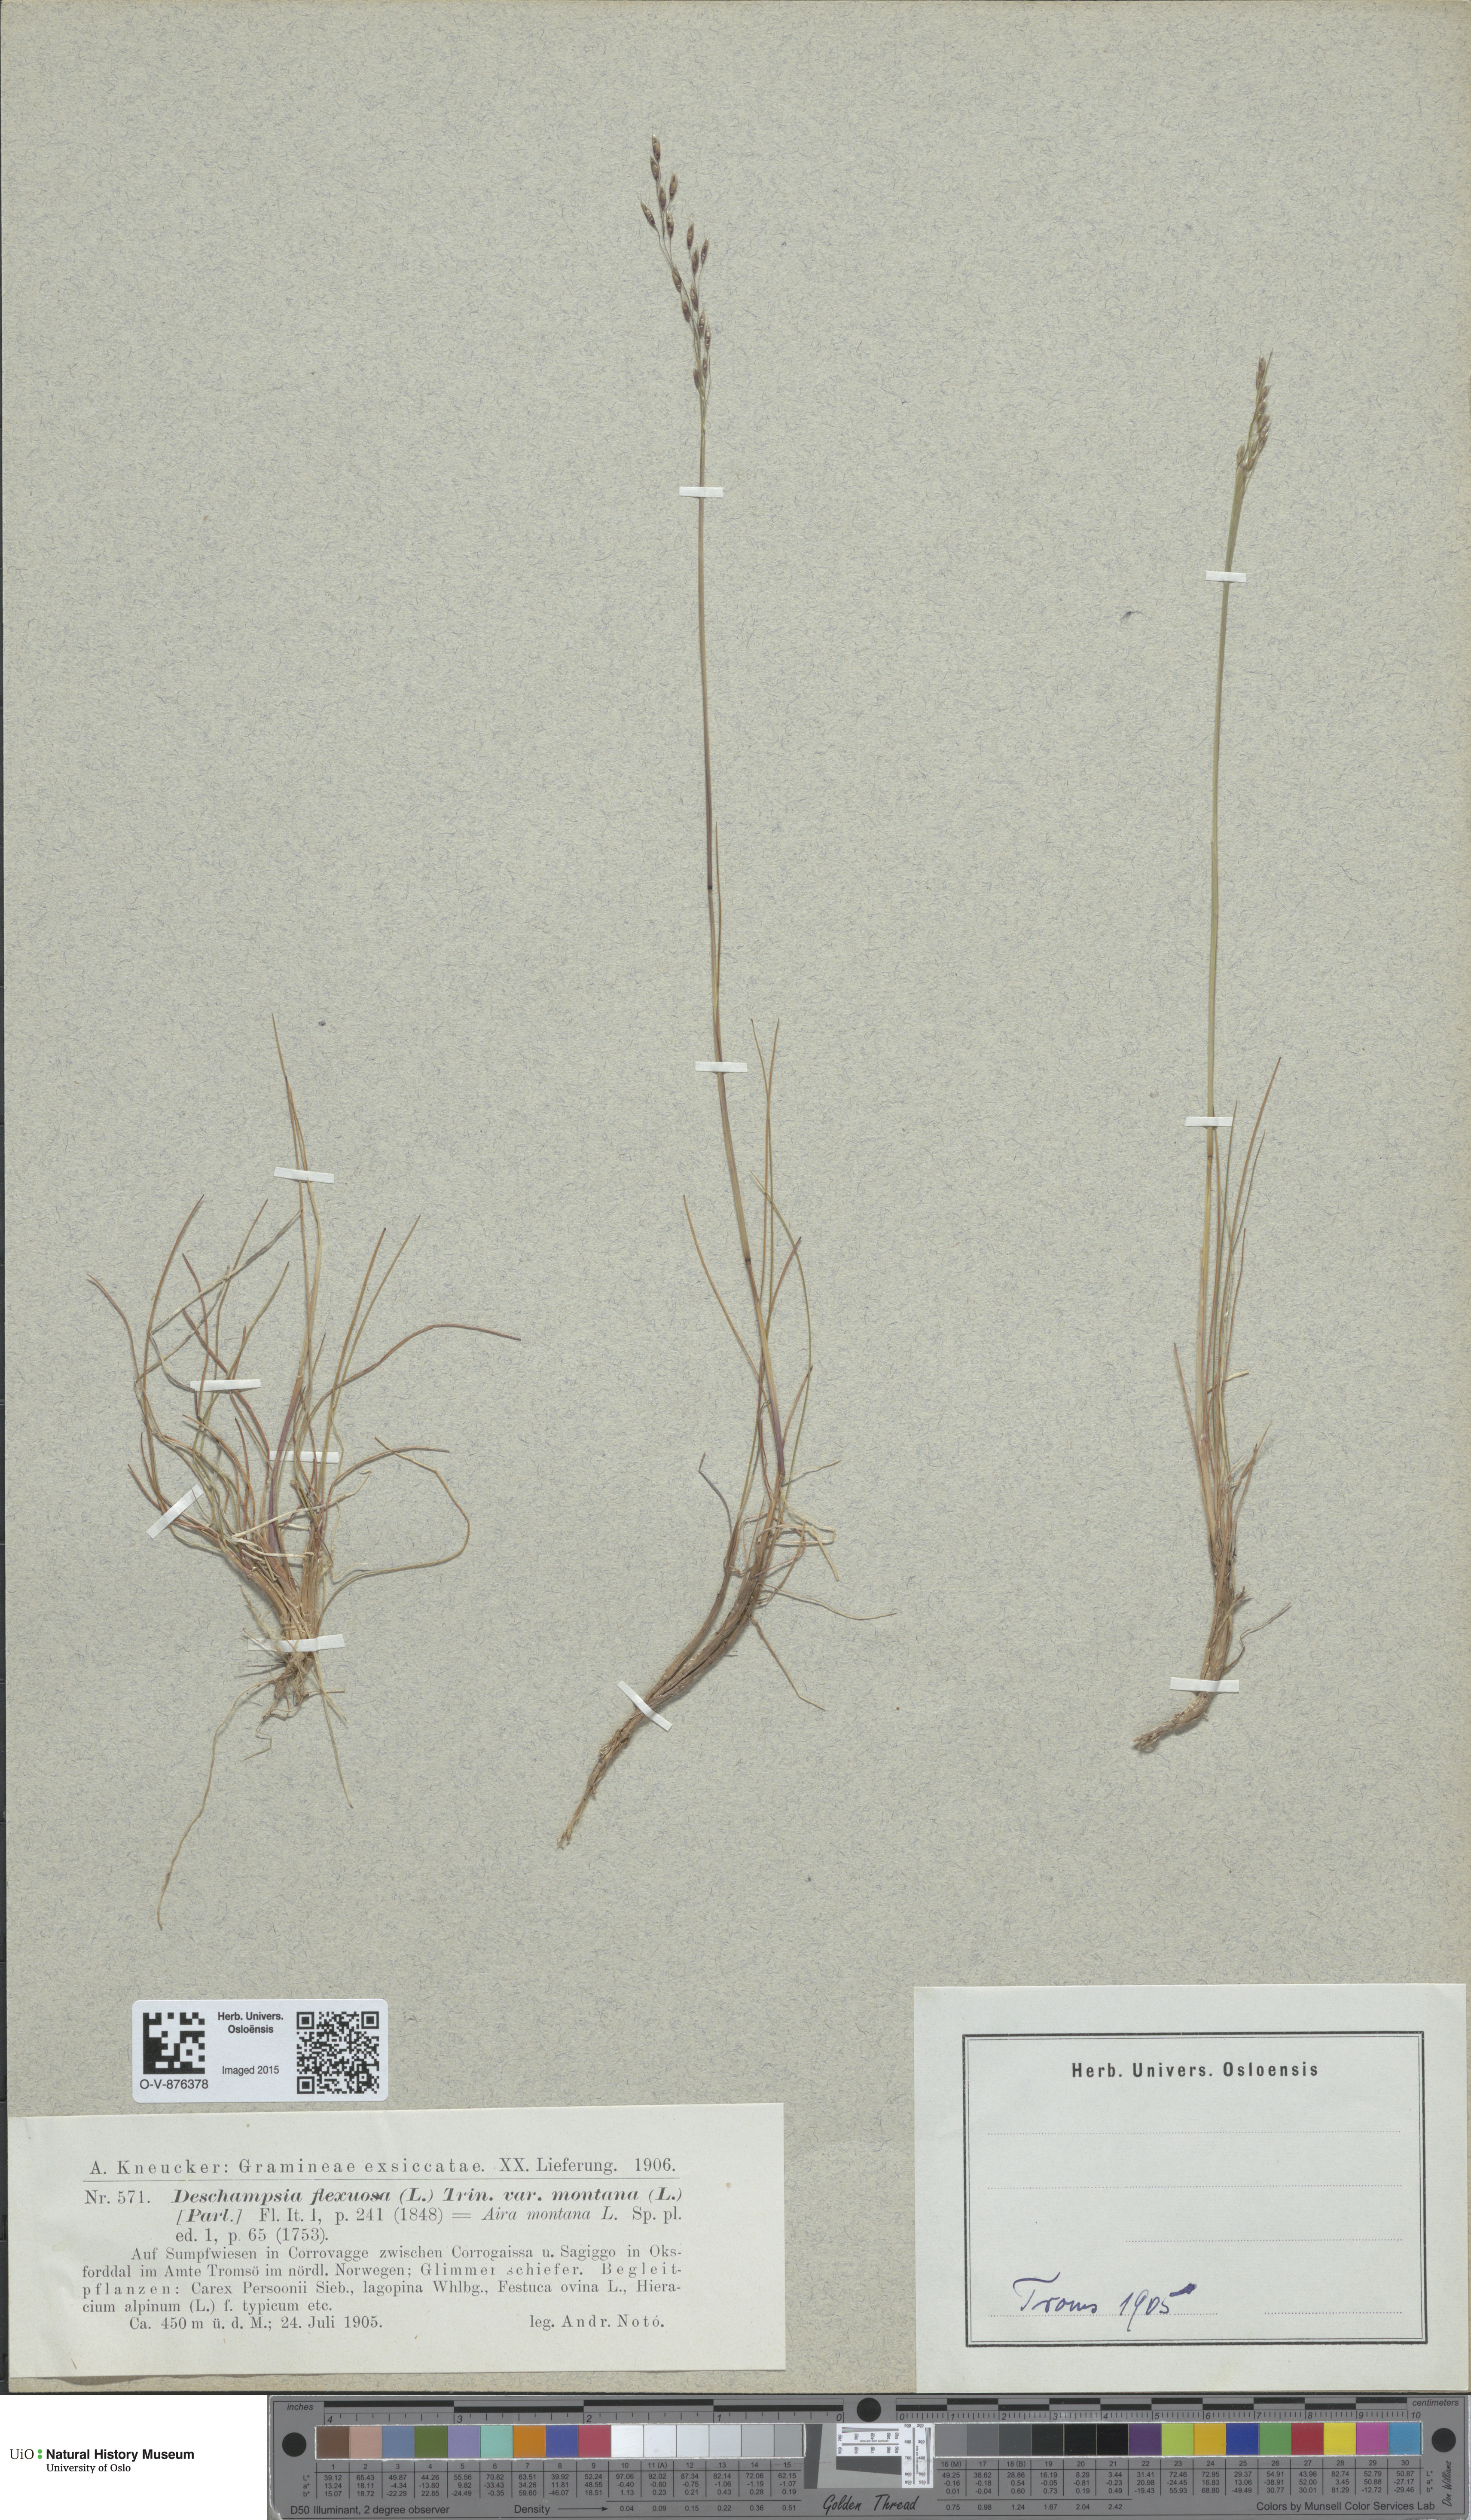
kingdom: Plantae
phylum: Tracheophyta
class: Liliopsida
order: Poales
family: Poaceae
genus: Avenella
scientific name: Avenella flexuosa
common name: Wavy hairgrass
